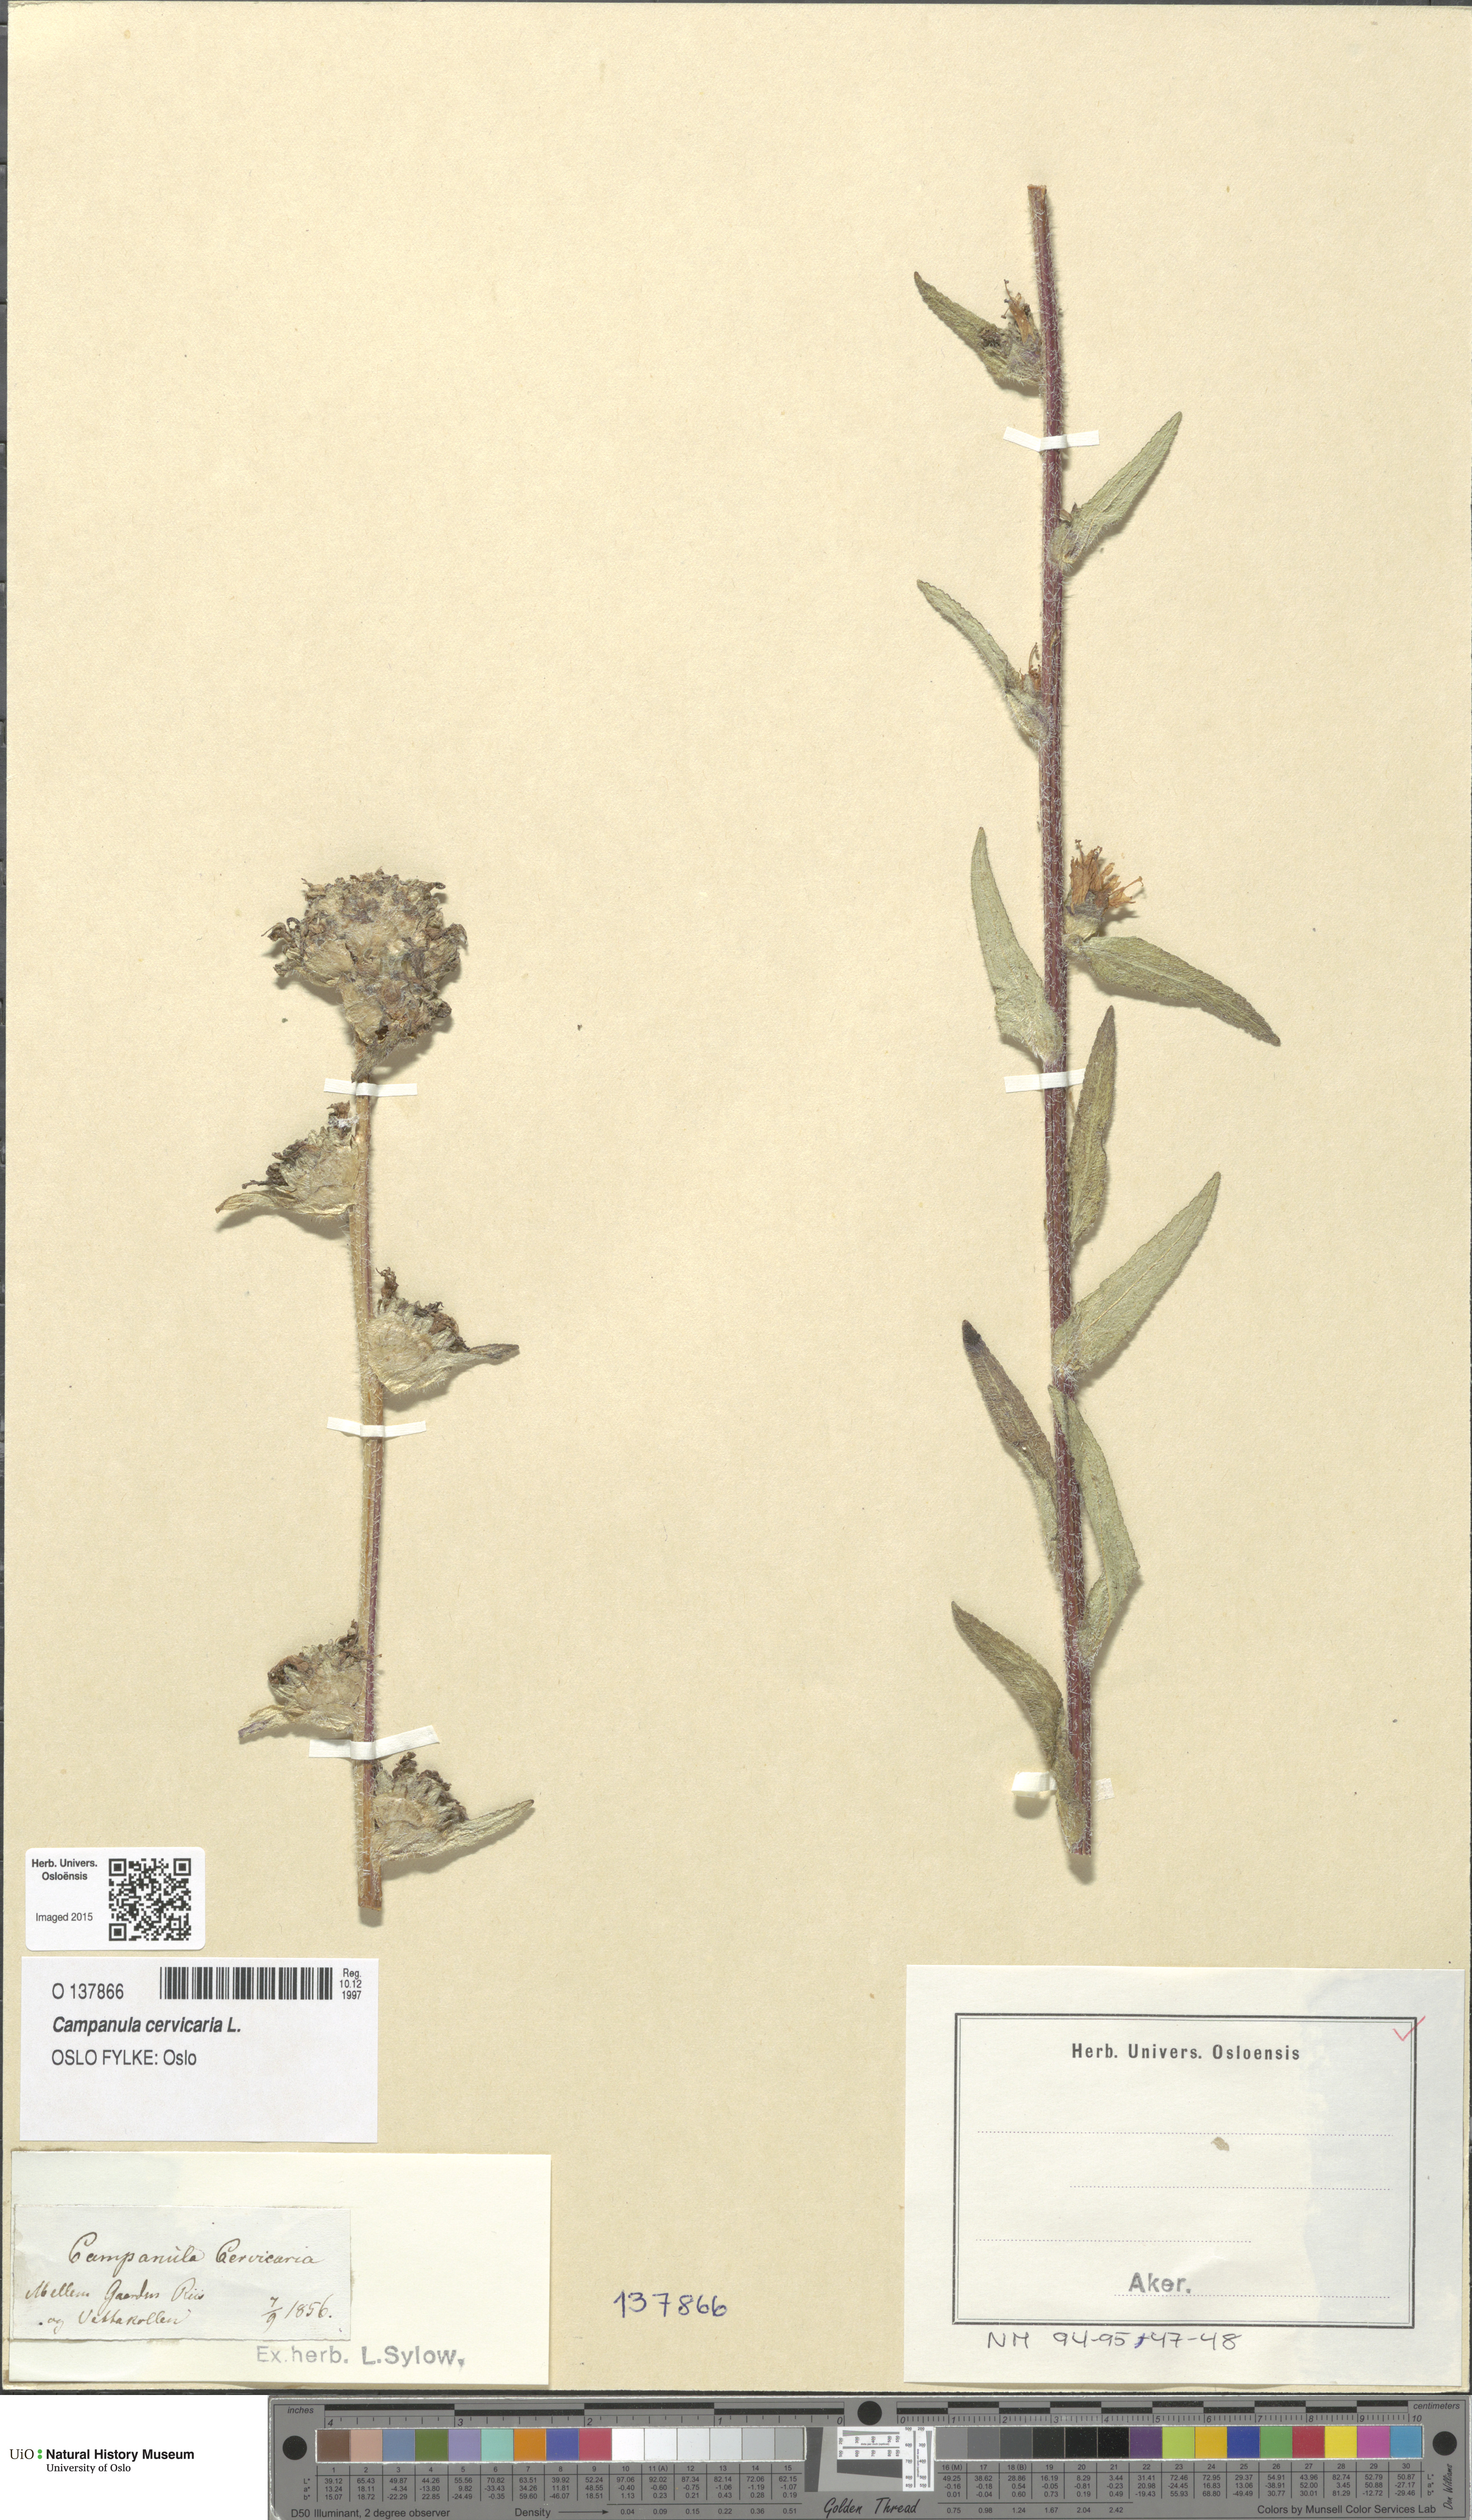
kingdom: Plantae
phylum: Tracheophyta
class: Magnoliopsida
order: Asterales
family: Campanulaceae
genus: Campanula
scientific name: Campanula cervicaria
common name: Bristly bellflower
